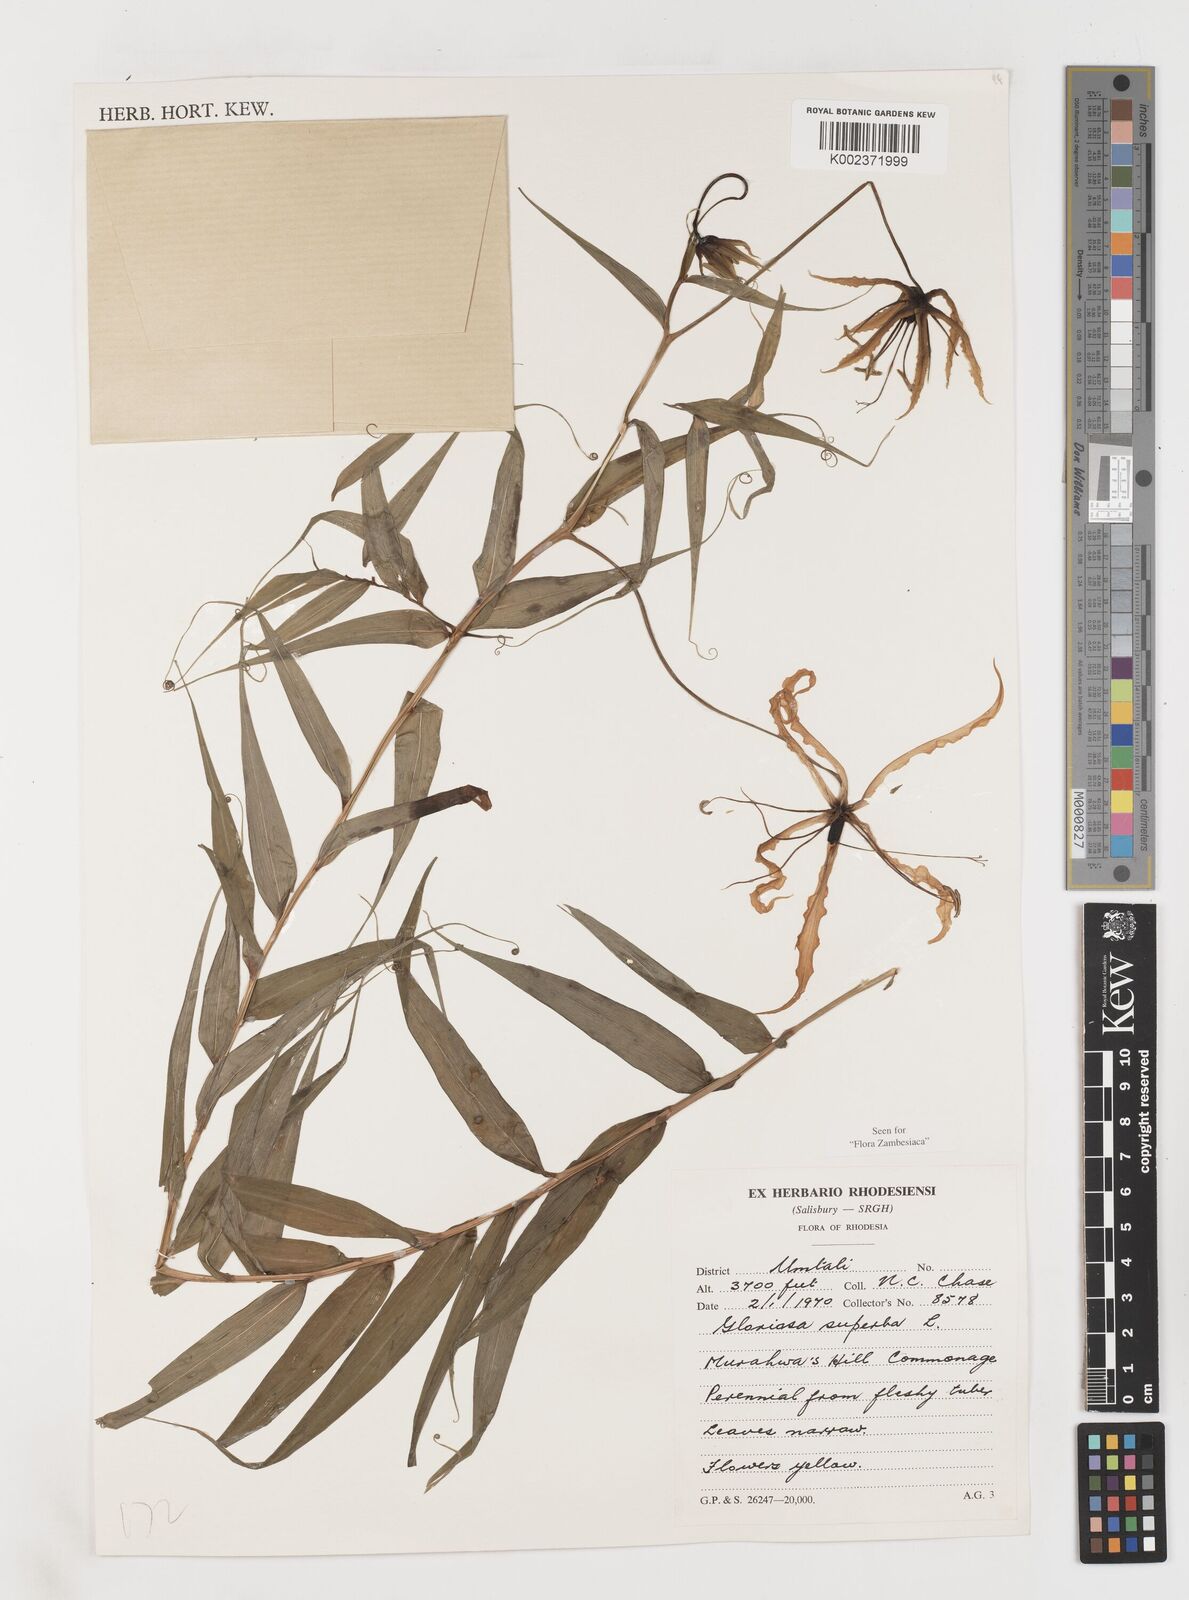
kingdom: Plantae
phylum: Tracheophyta
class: Liliopsida
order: Liliales
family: Colchicaceae
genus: Gloriosa
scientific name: Gloriosa superba
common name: Flame lily
